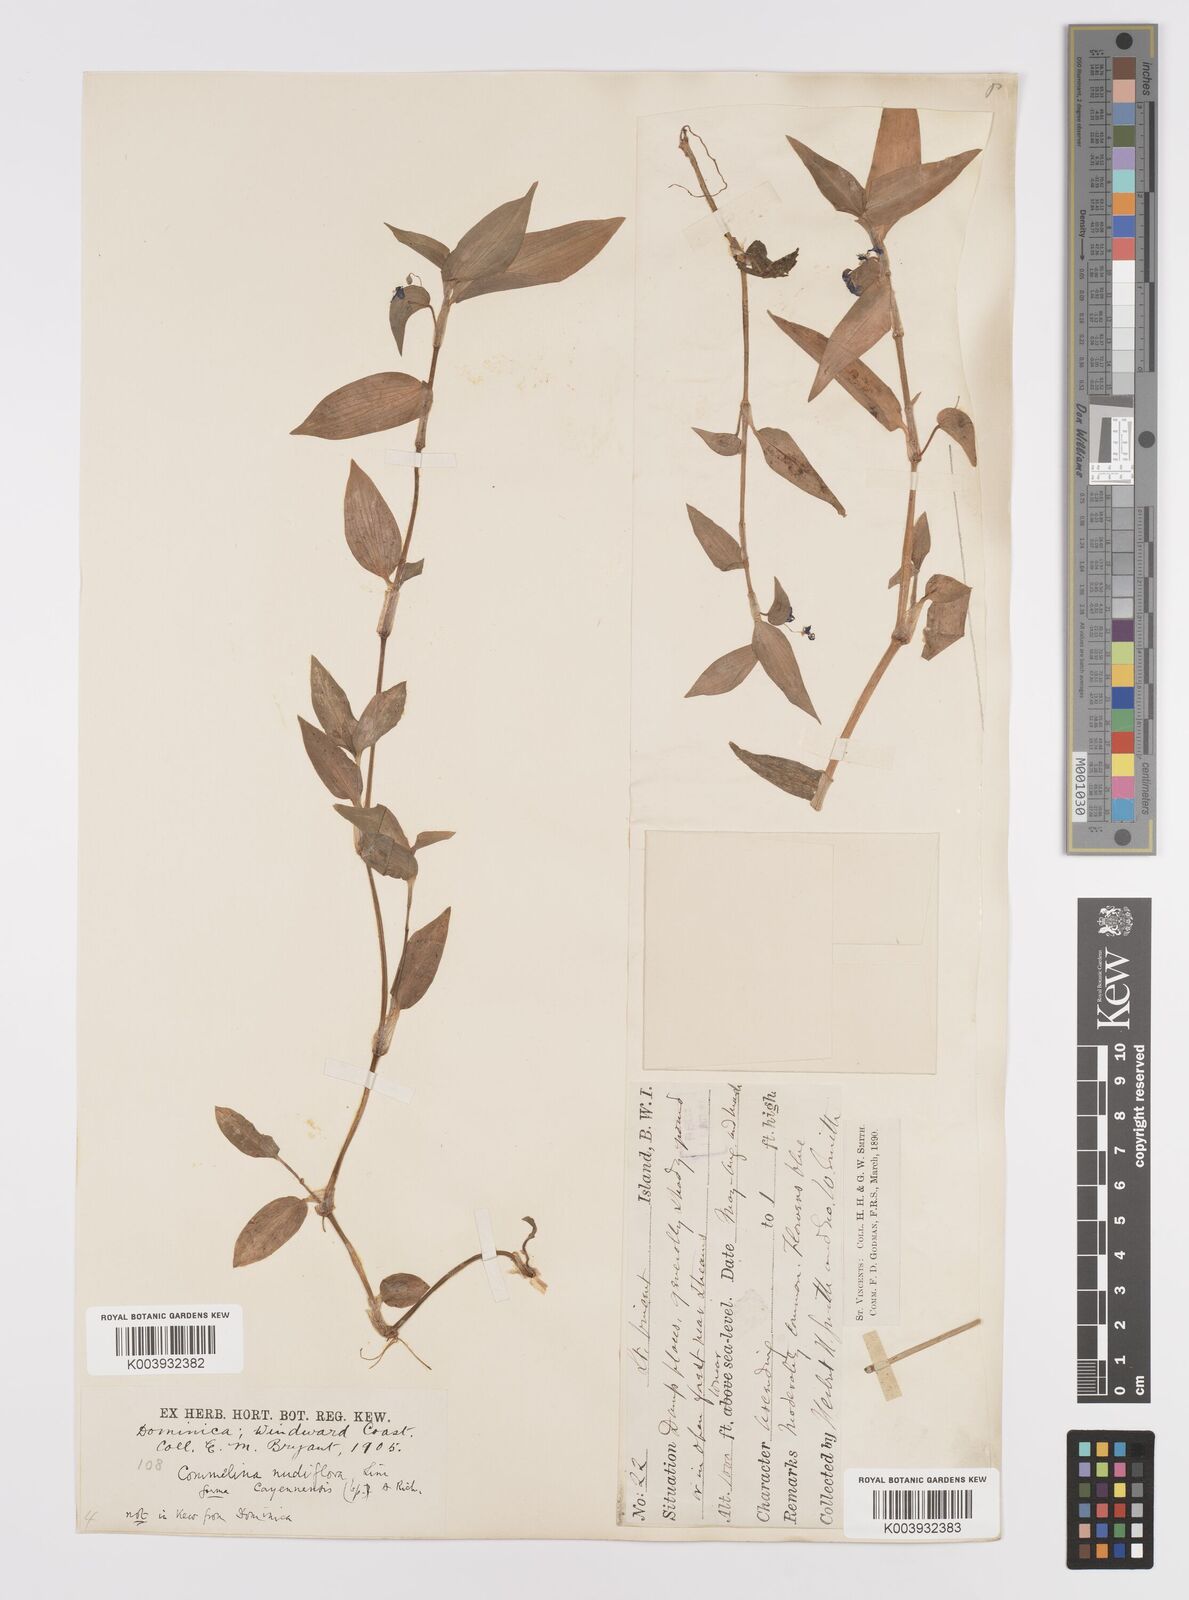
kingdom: Plantae
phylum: Tracheophyta
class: Liliopsida
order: Commelinales
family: Commelinaceae
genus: Commelina
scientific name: Commelina
